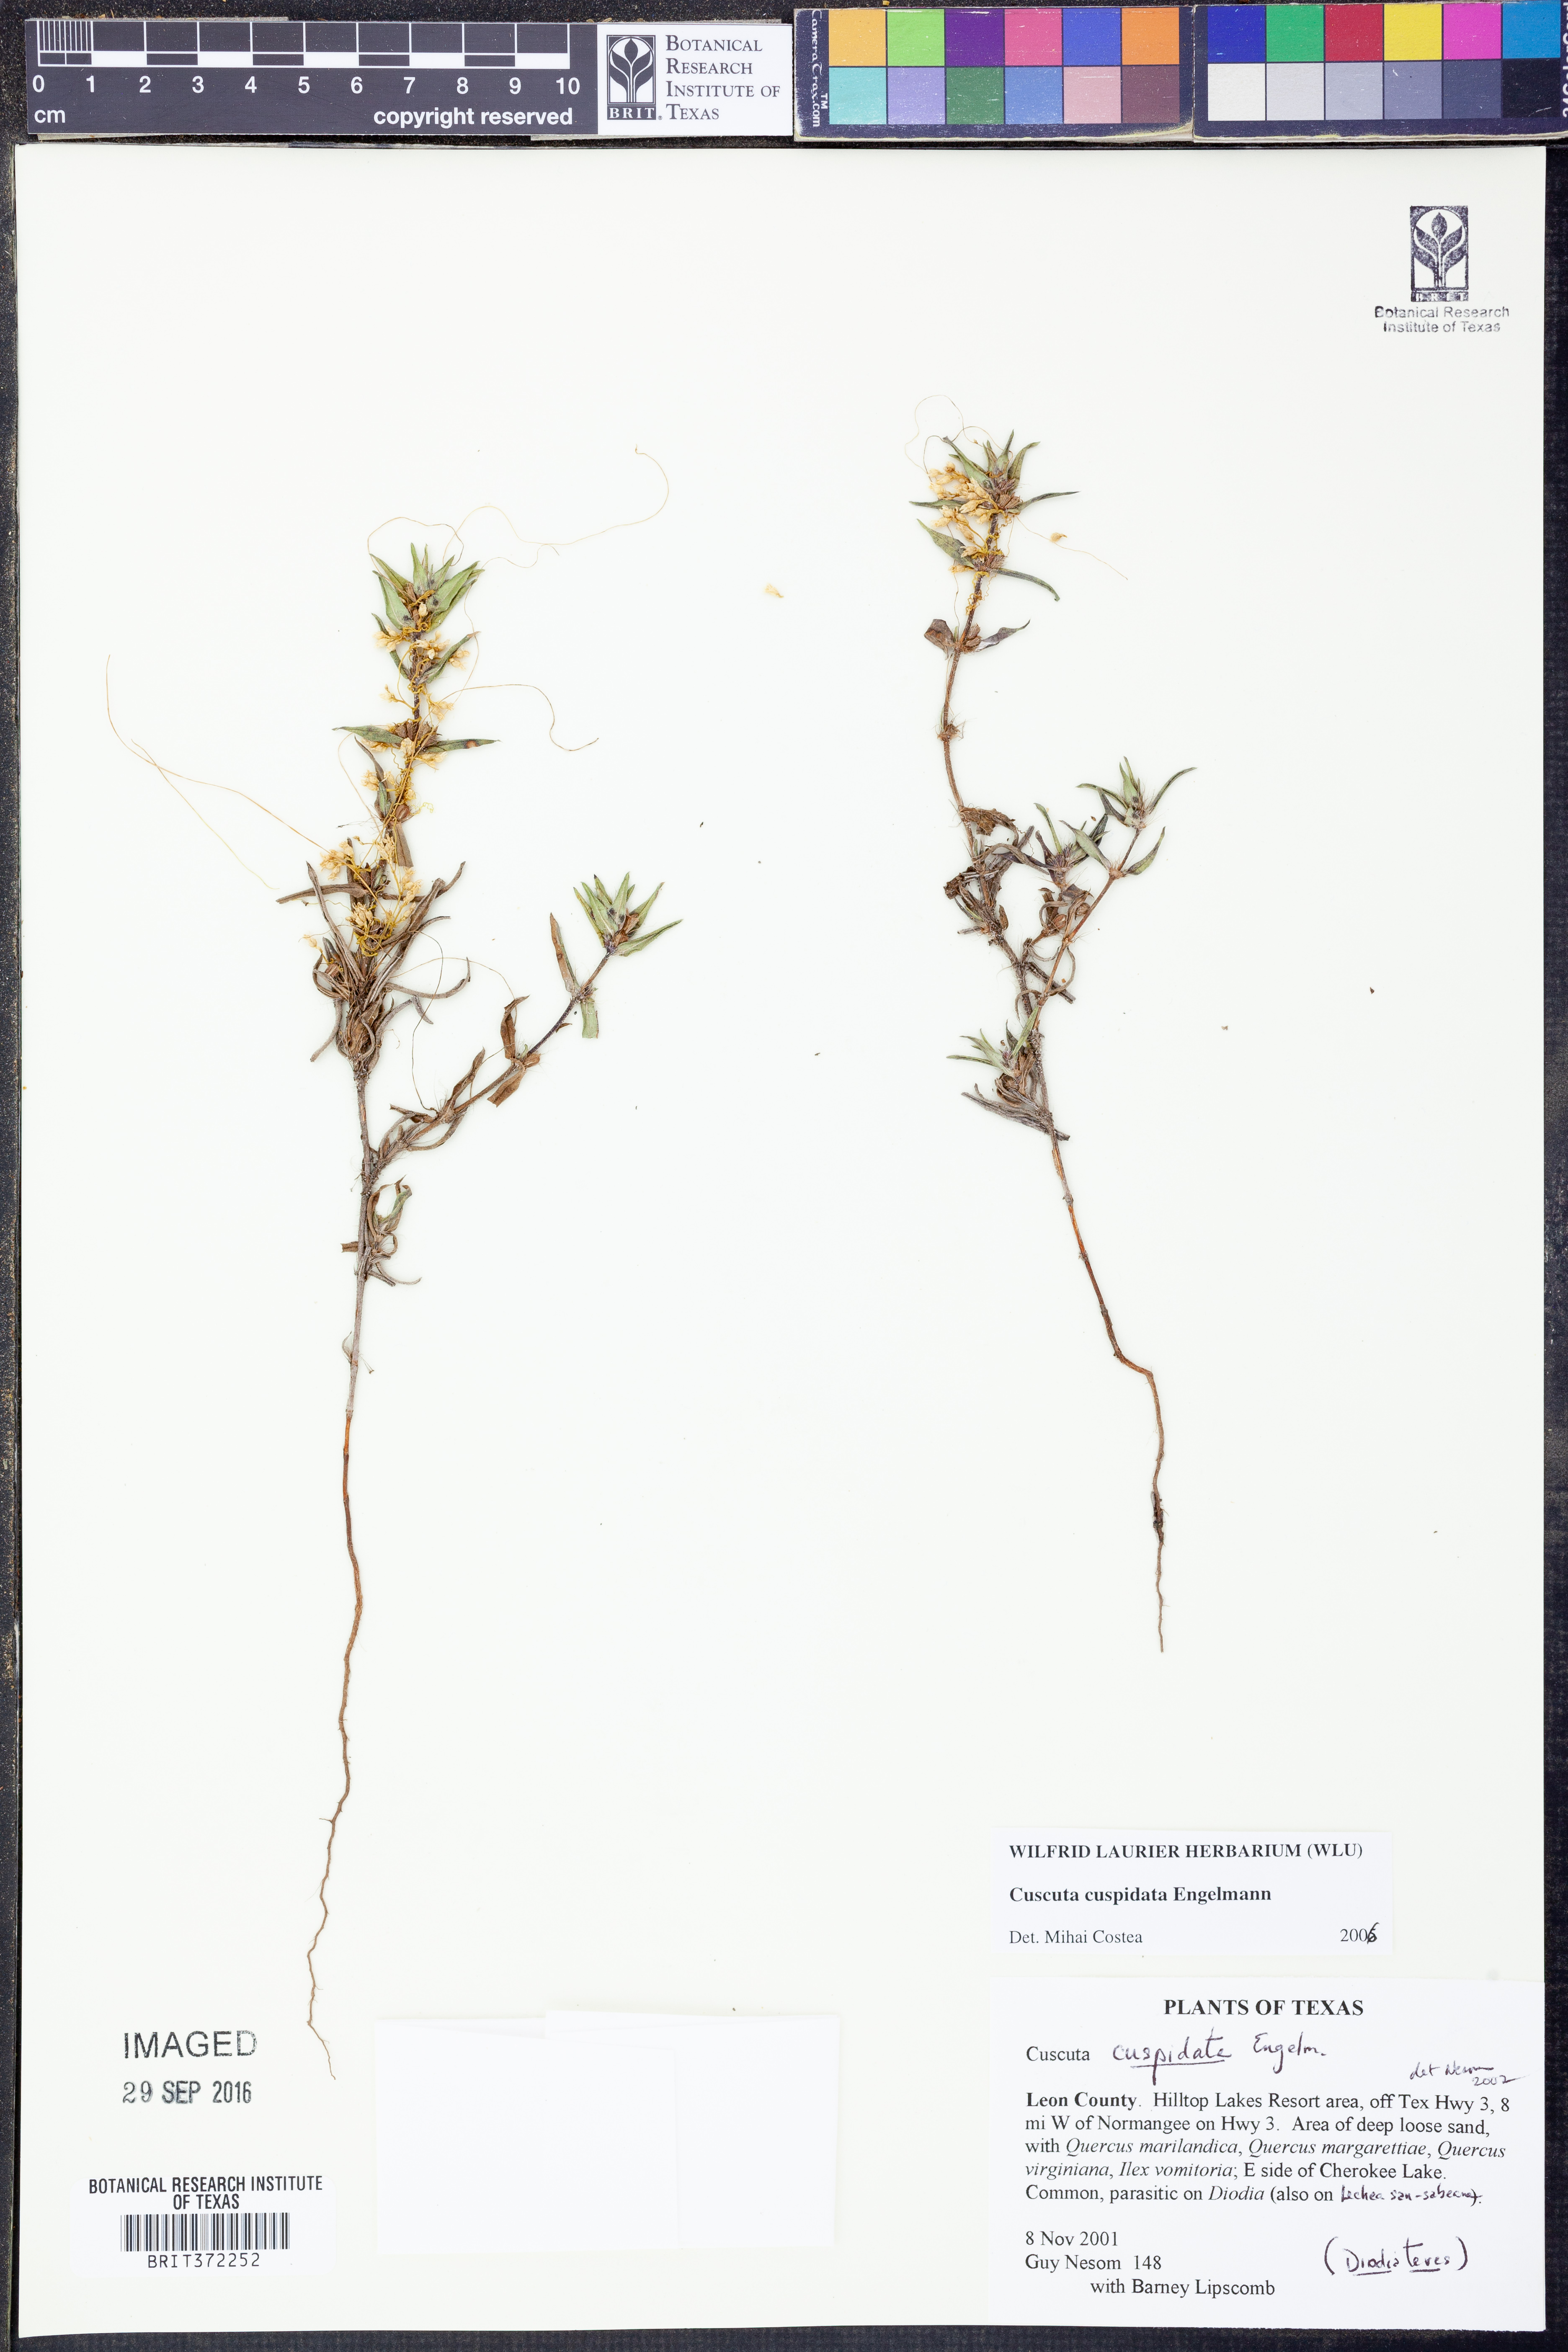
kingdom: Plantae
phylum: Tracheophyta
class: Magnoliopsida
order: Solanales
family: Convolvulaceae
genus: Cuscuta
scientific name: Cuscuta cuspidata
